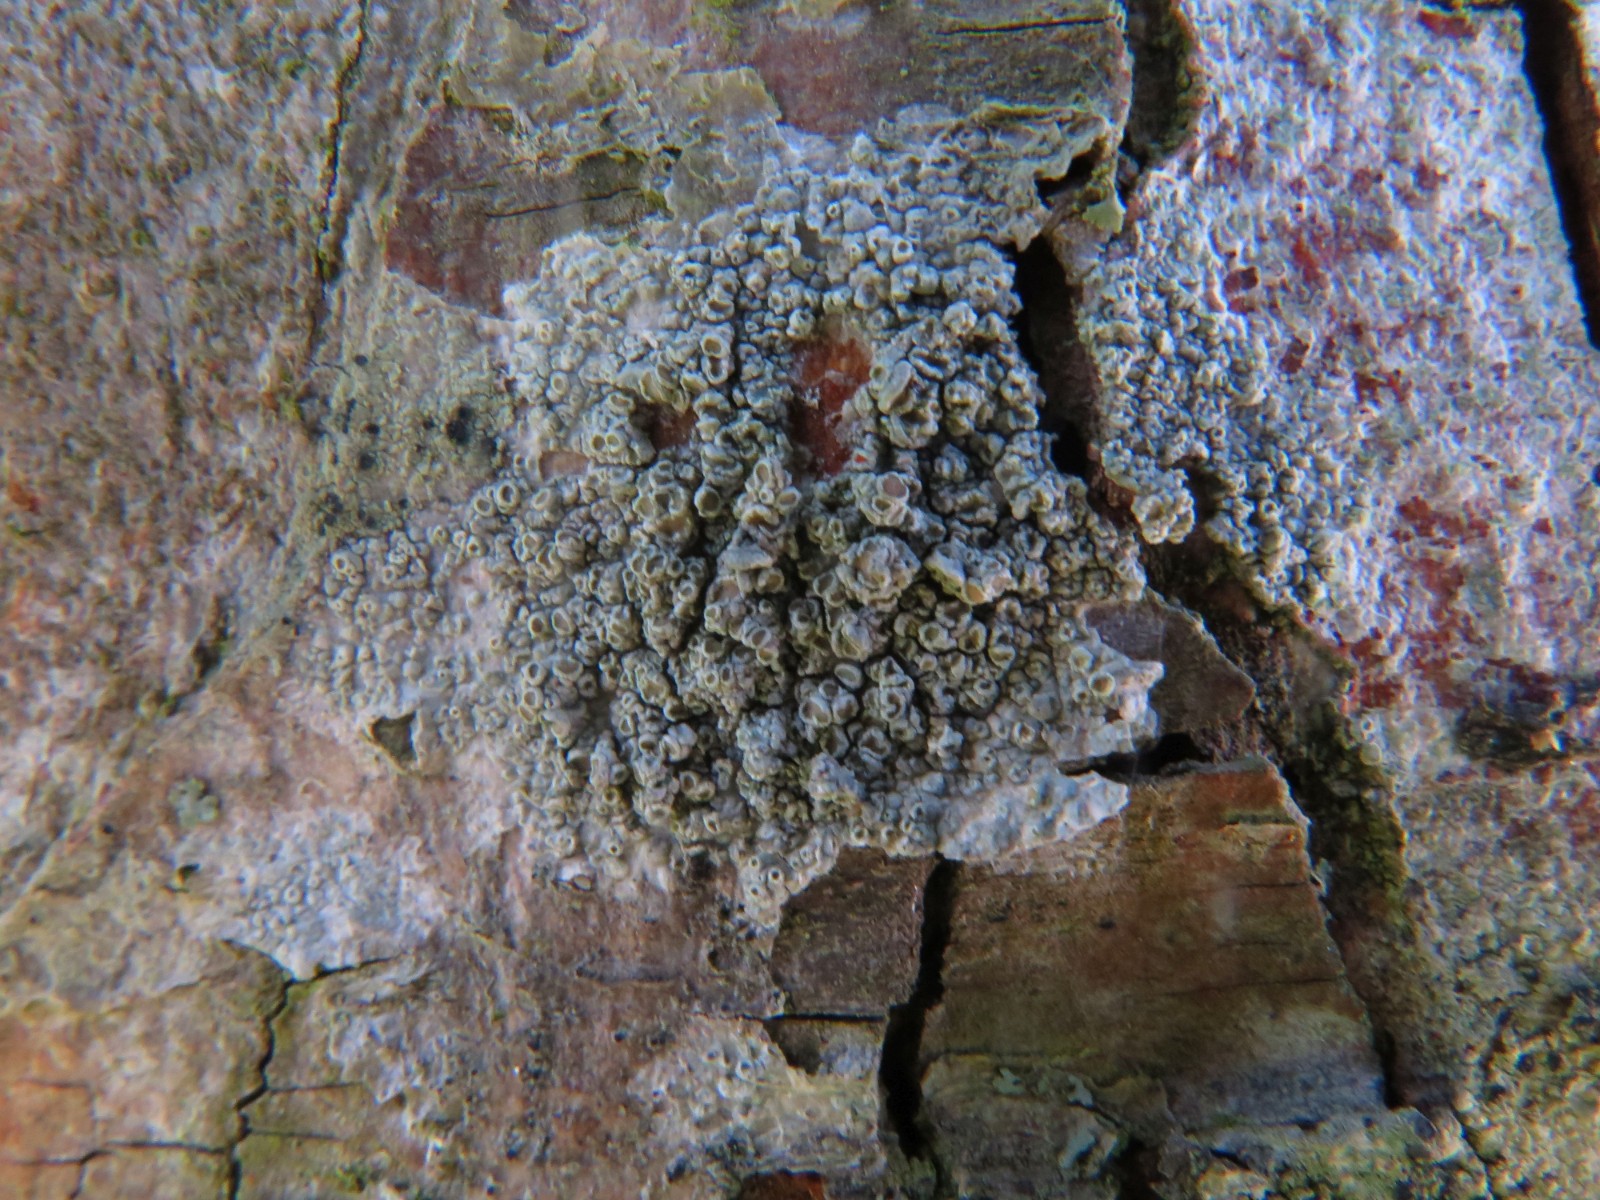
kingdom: Fungi
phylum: Ascomycota
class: Lecanoromycetes
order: Lecanorales
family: Lecanoraceae
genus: Lecanora
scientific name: Lecanora chlarotera
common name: brun kantskivelav
